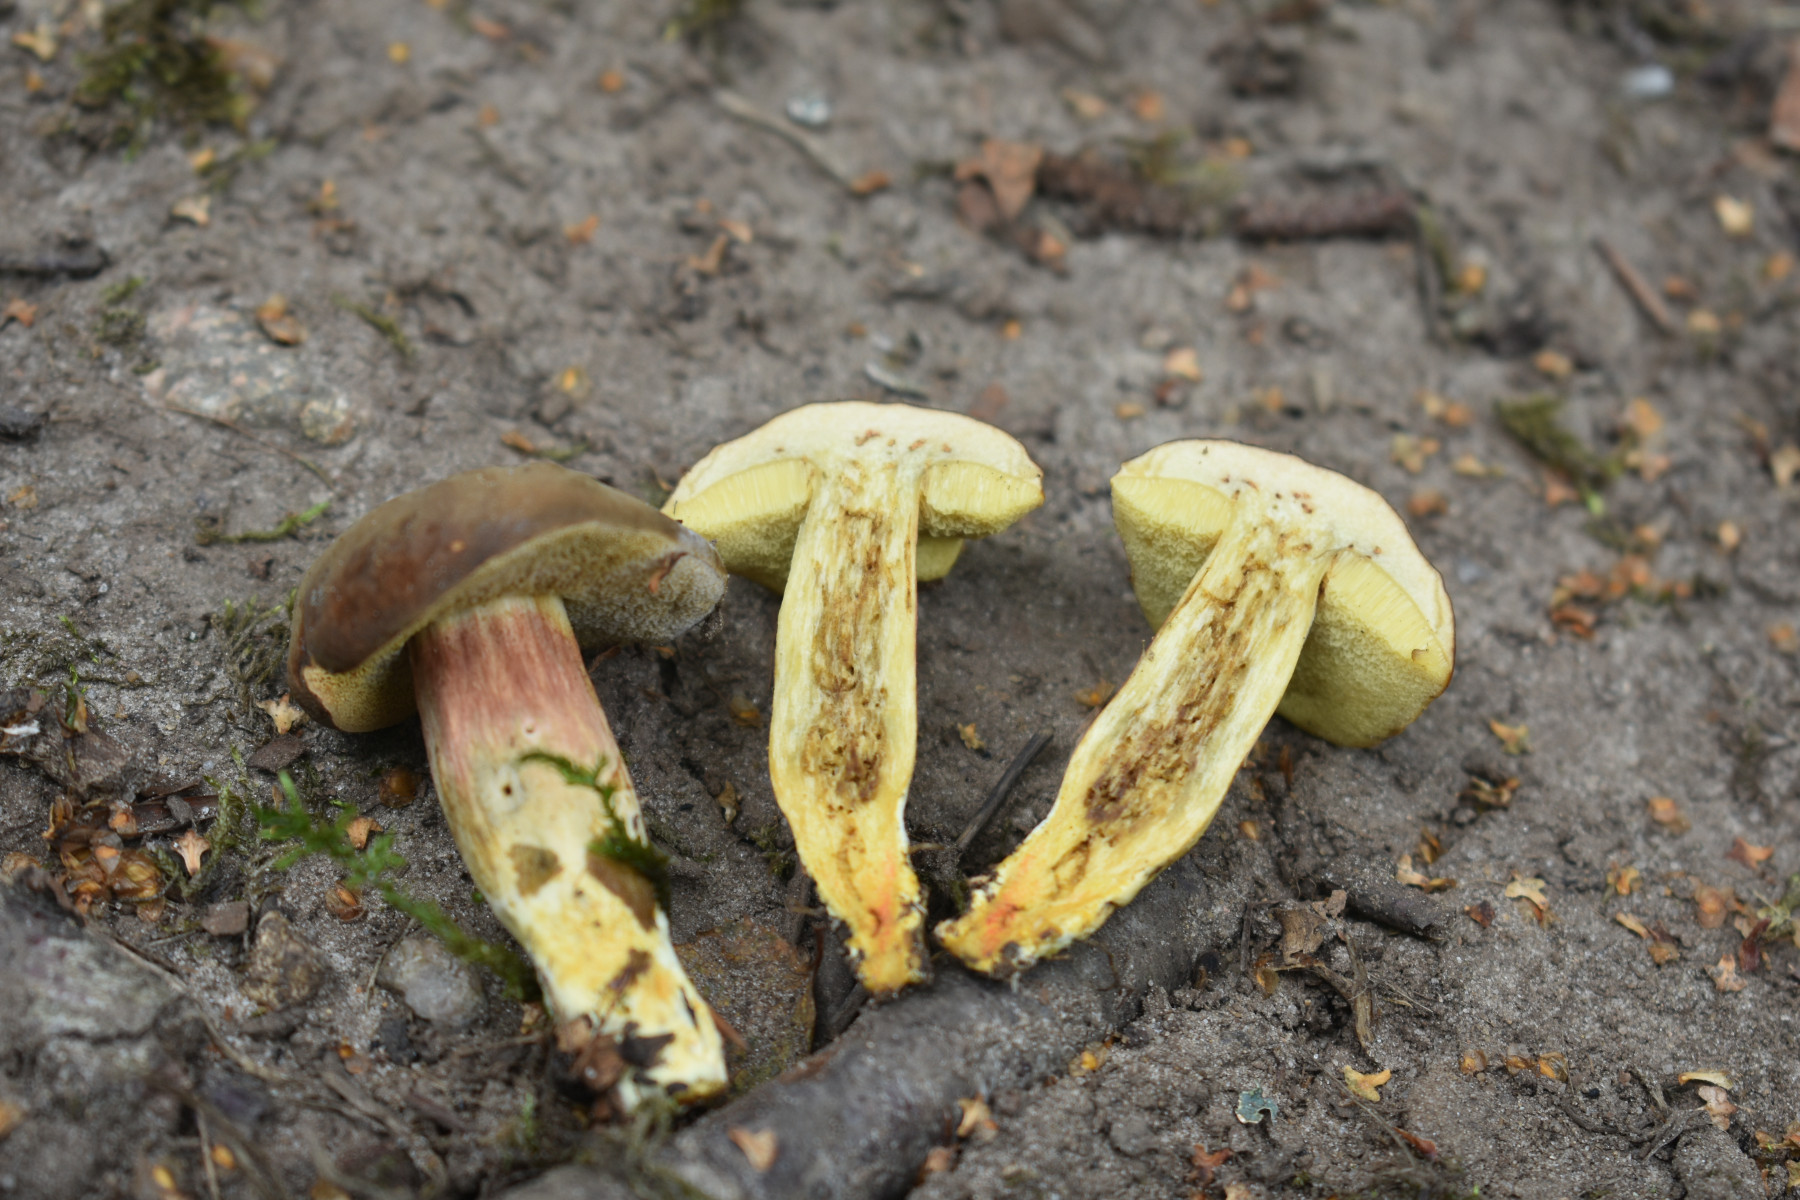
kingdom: Fungi
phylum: Basidiomycota
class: Agaricomycetes
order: Boletales
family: Boletaceae
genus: Hortiboletus
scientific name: Hortiboletus engelii
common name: fersken-rørhat
